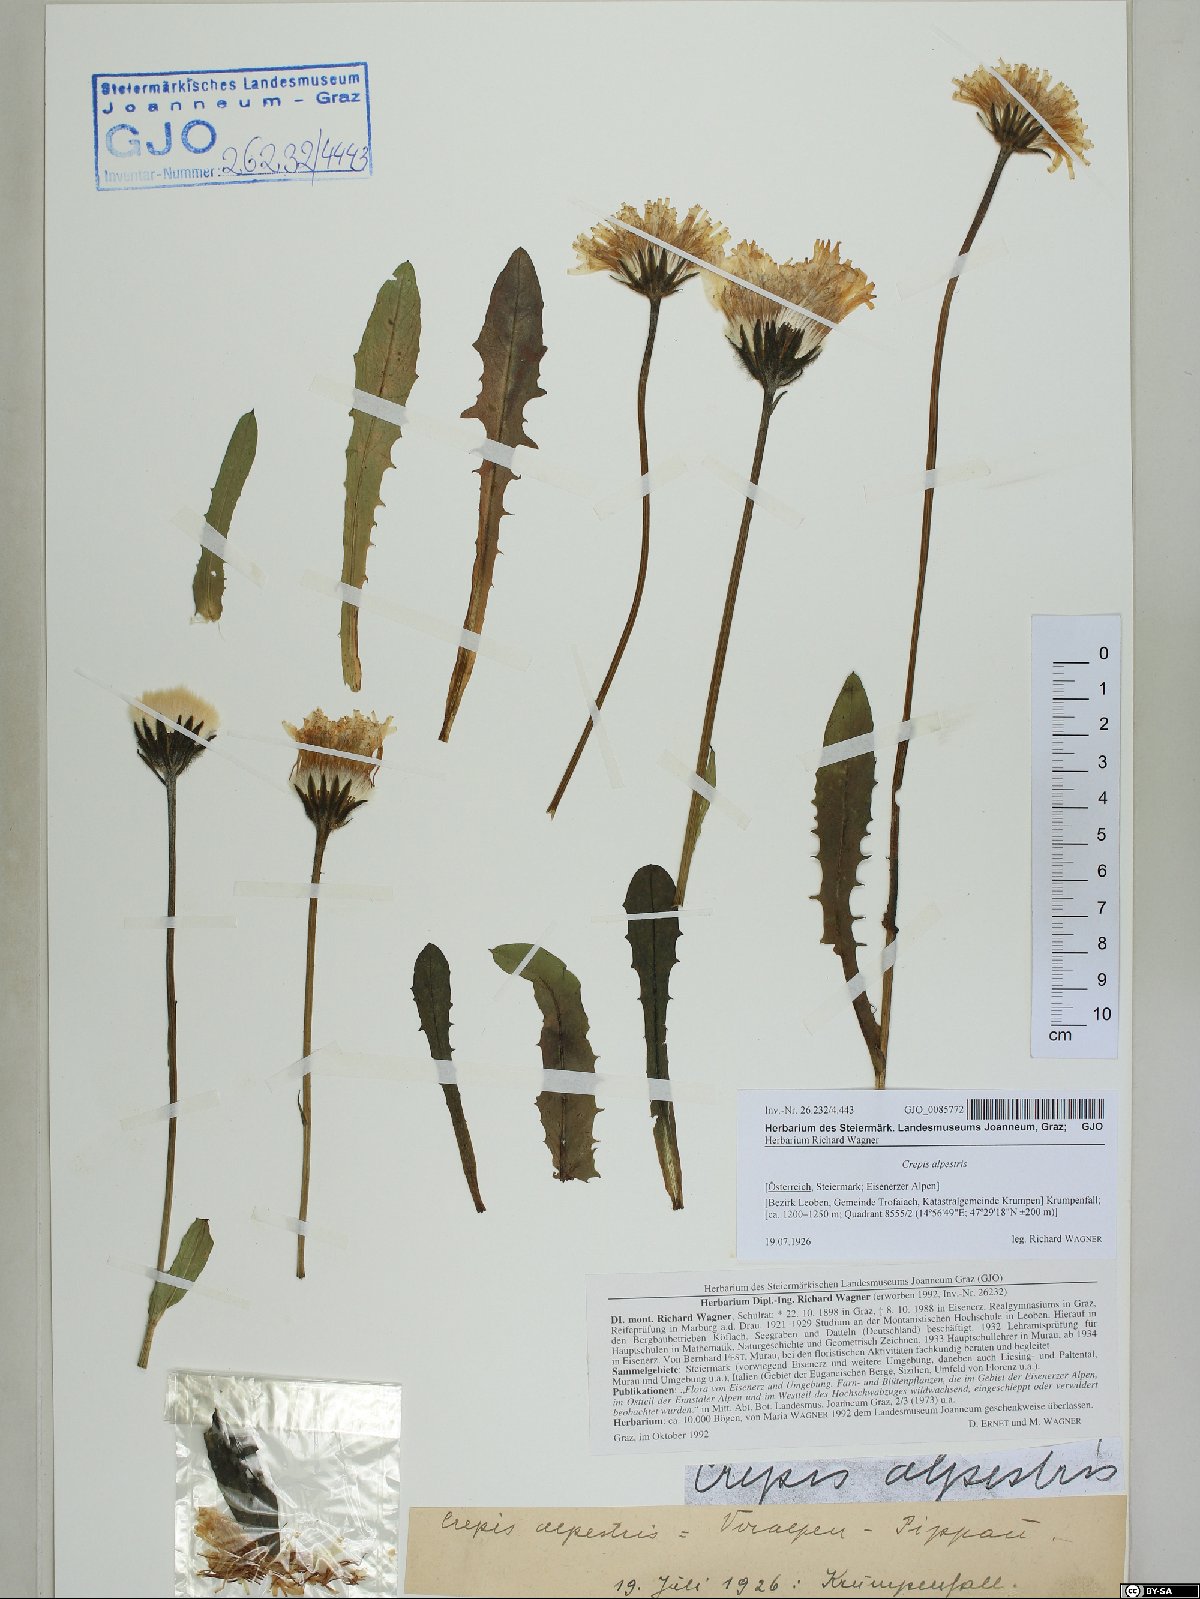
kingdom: Plantae
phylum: Tracheophyta
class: Magnoliopsida
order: Asterales
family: Asteraceae
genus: Crepis
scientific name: Crepis alpestris
